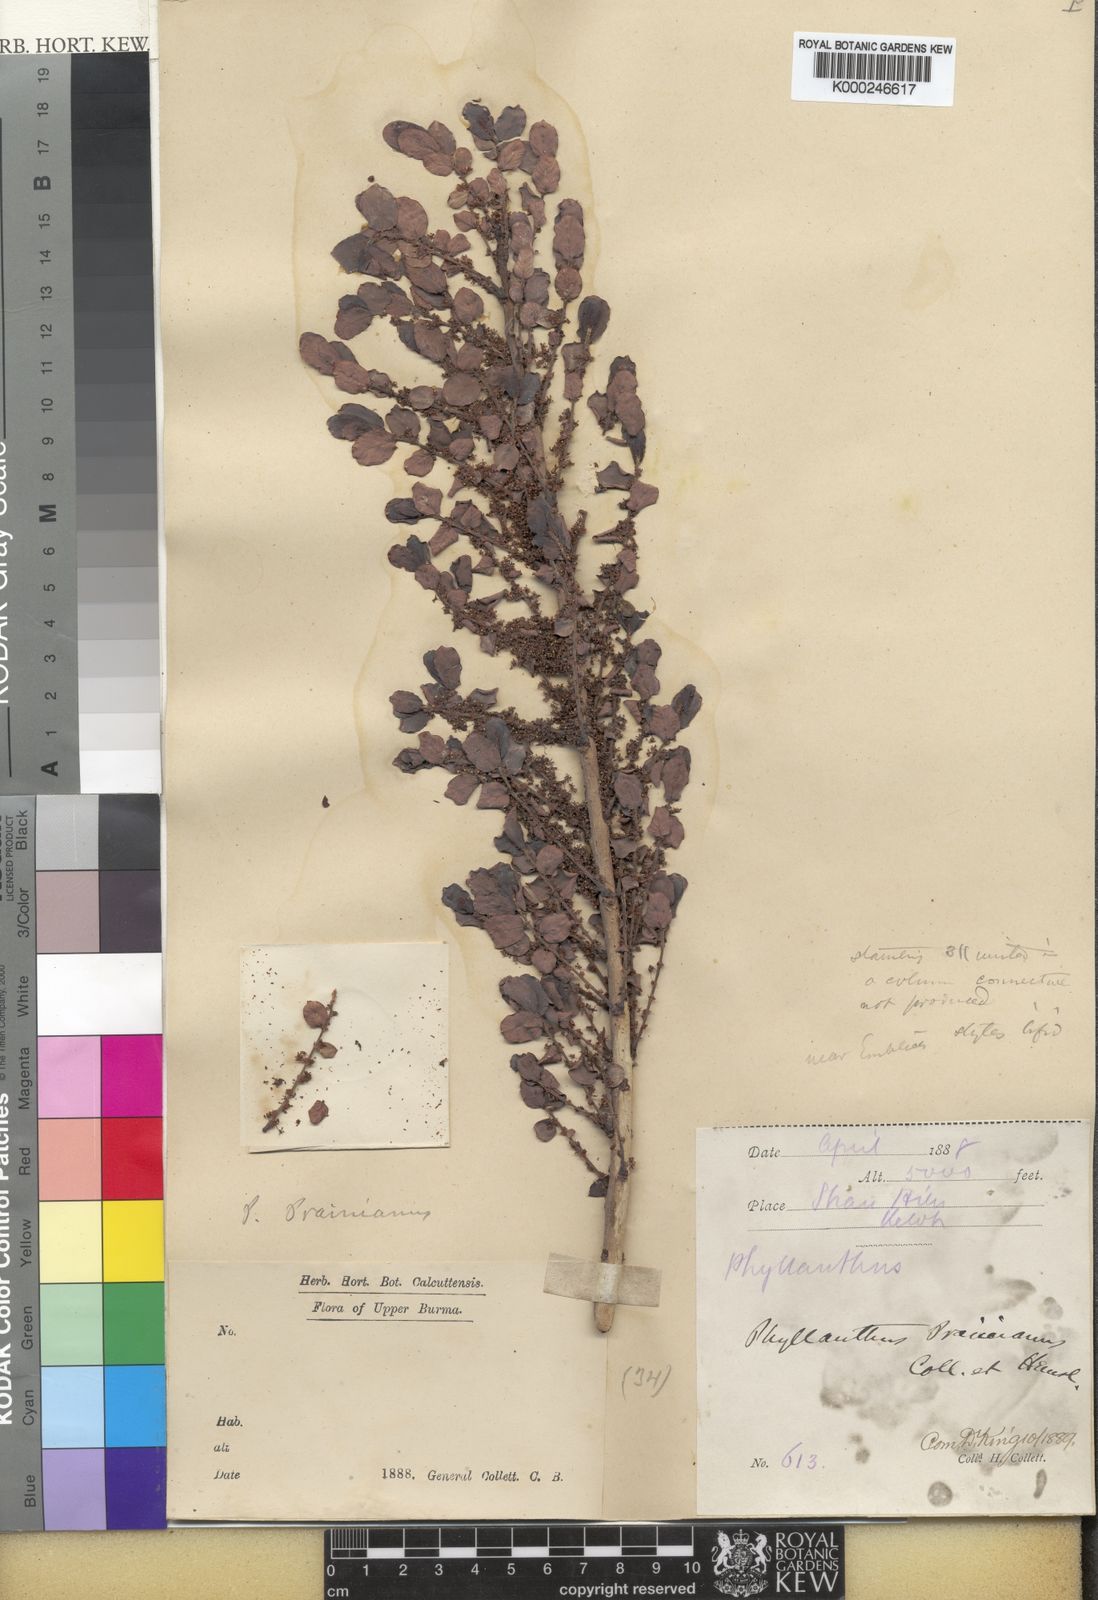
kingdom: Plantae
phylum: Tracheophyta
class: Magnoliopsida
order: Malpighiales
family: Phyllanthaceae
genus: Phyllanthus
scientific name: Phyllanthus prainianus
